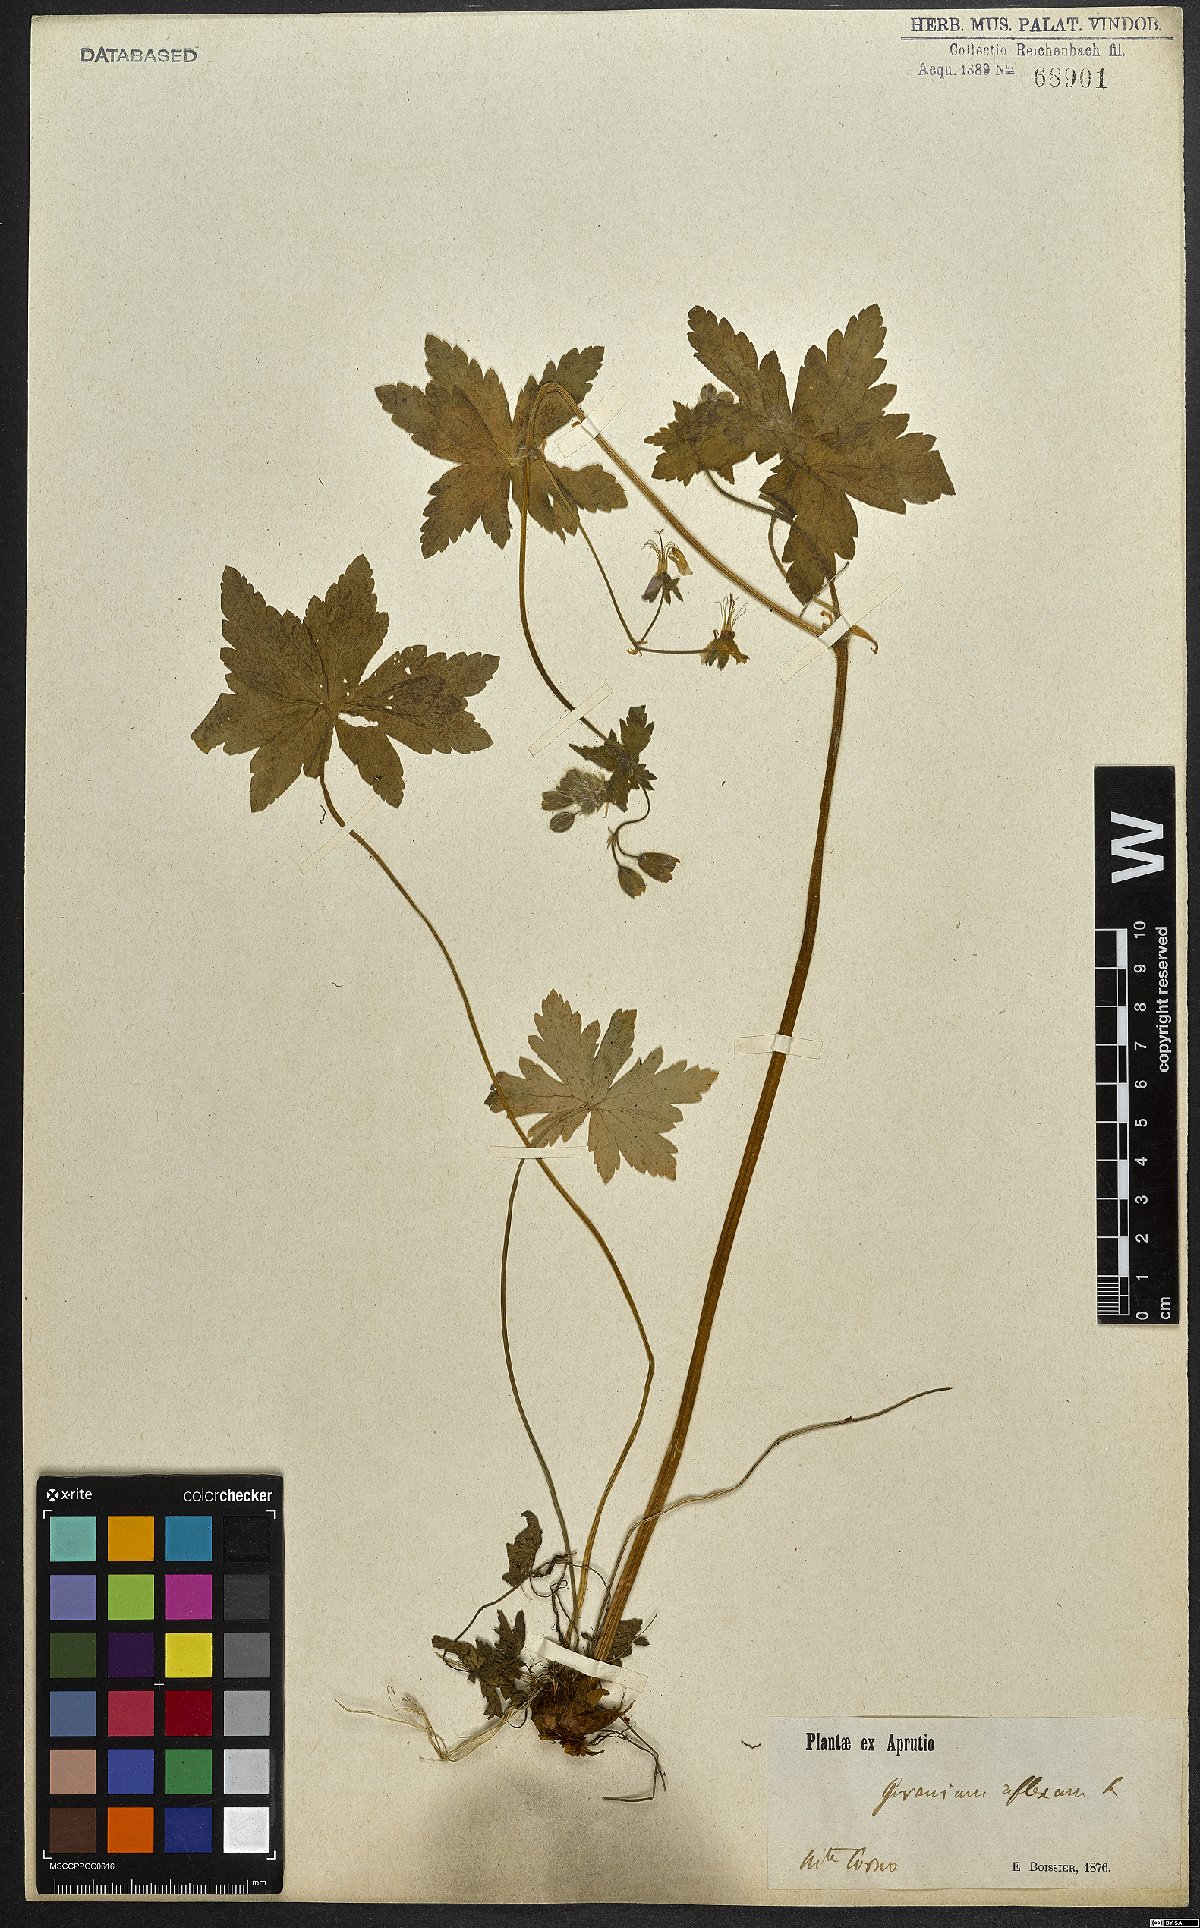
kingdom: Plantae
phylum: Tracheophyta
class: Magnoliopsida
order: Geraniales
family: Geraniaceae
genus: Geranium
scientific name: Geranium reflexum
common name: Reflexed crane's-bill
